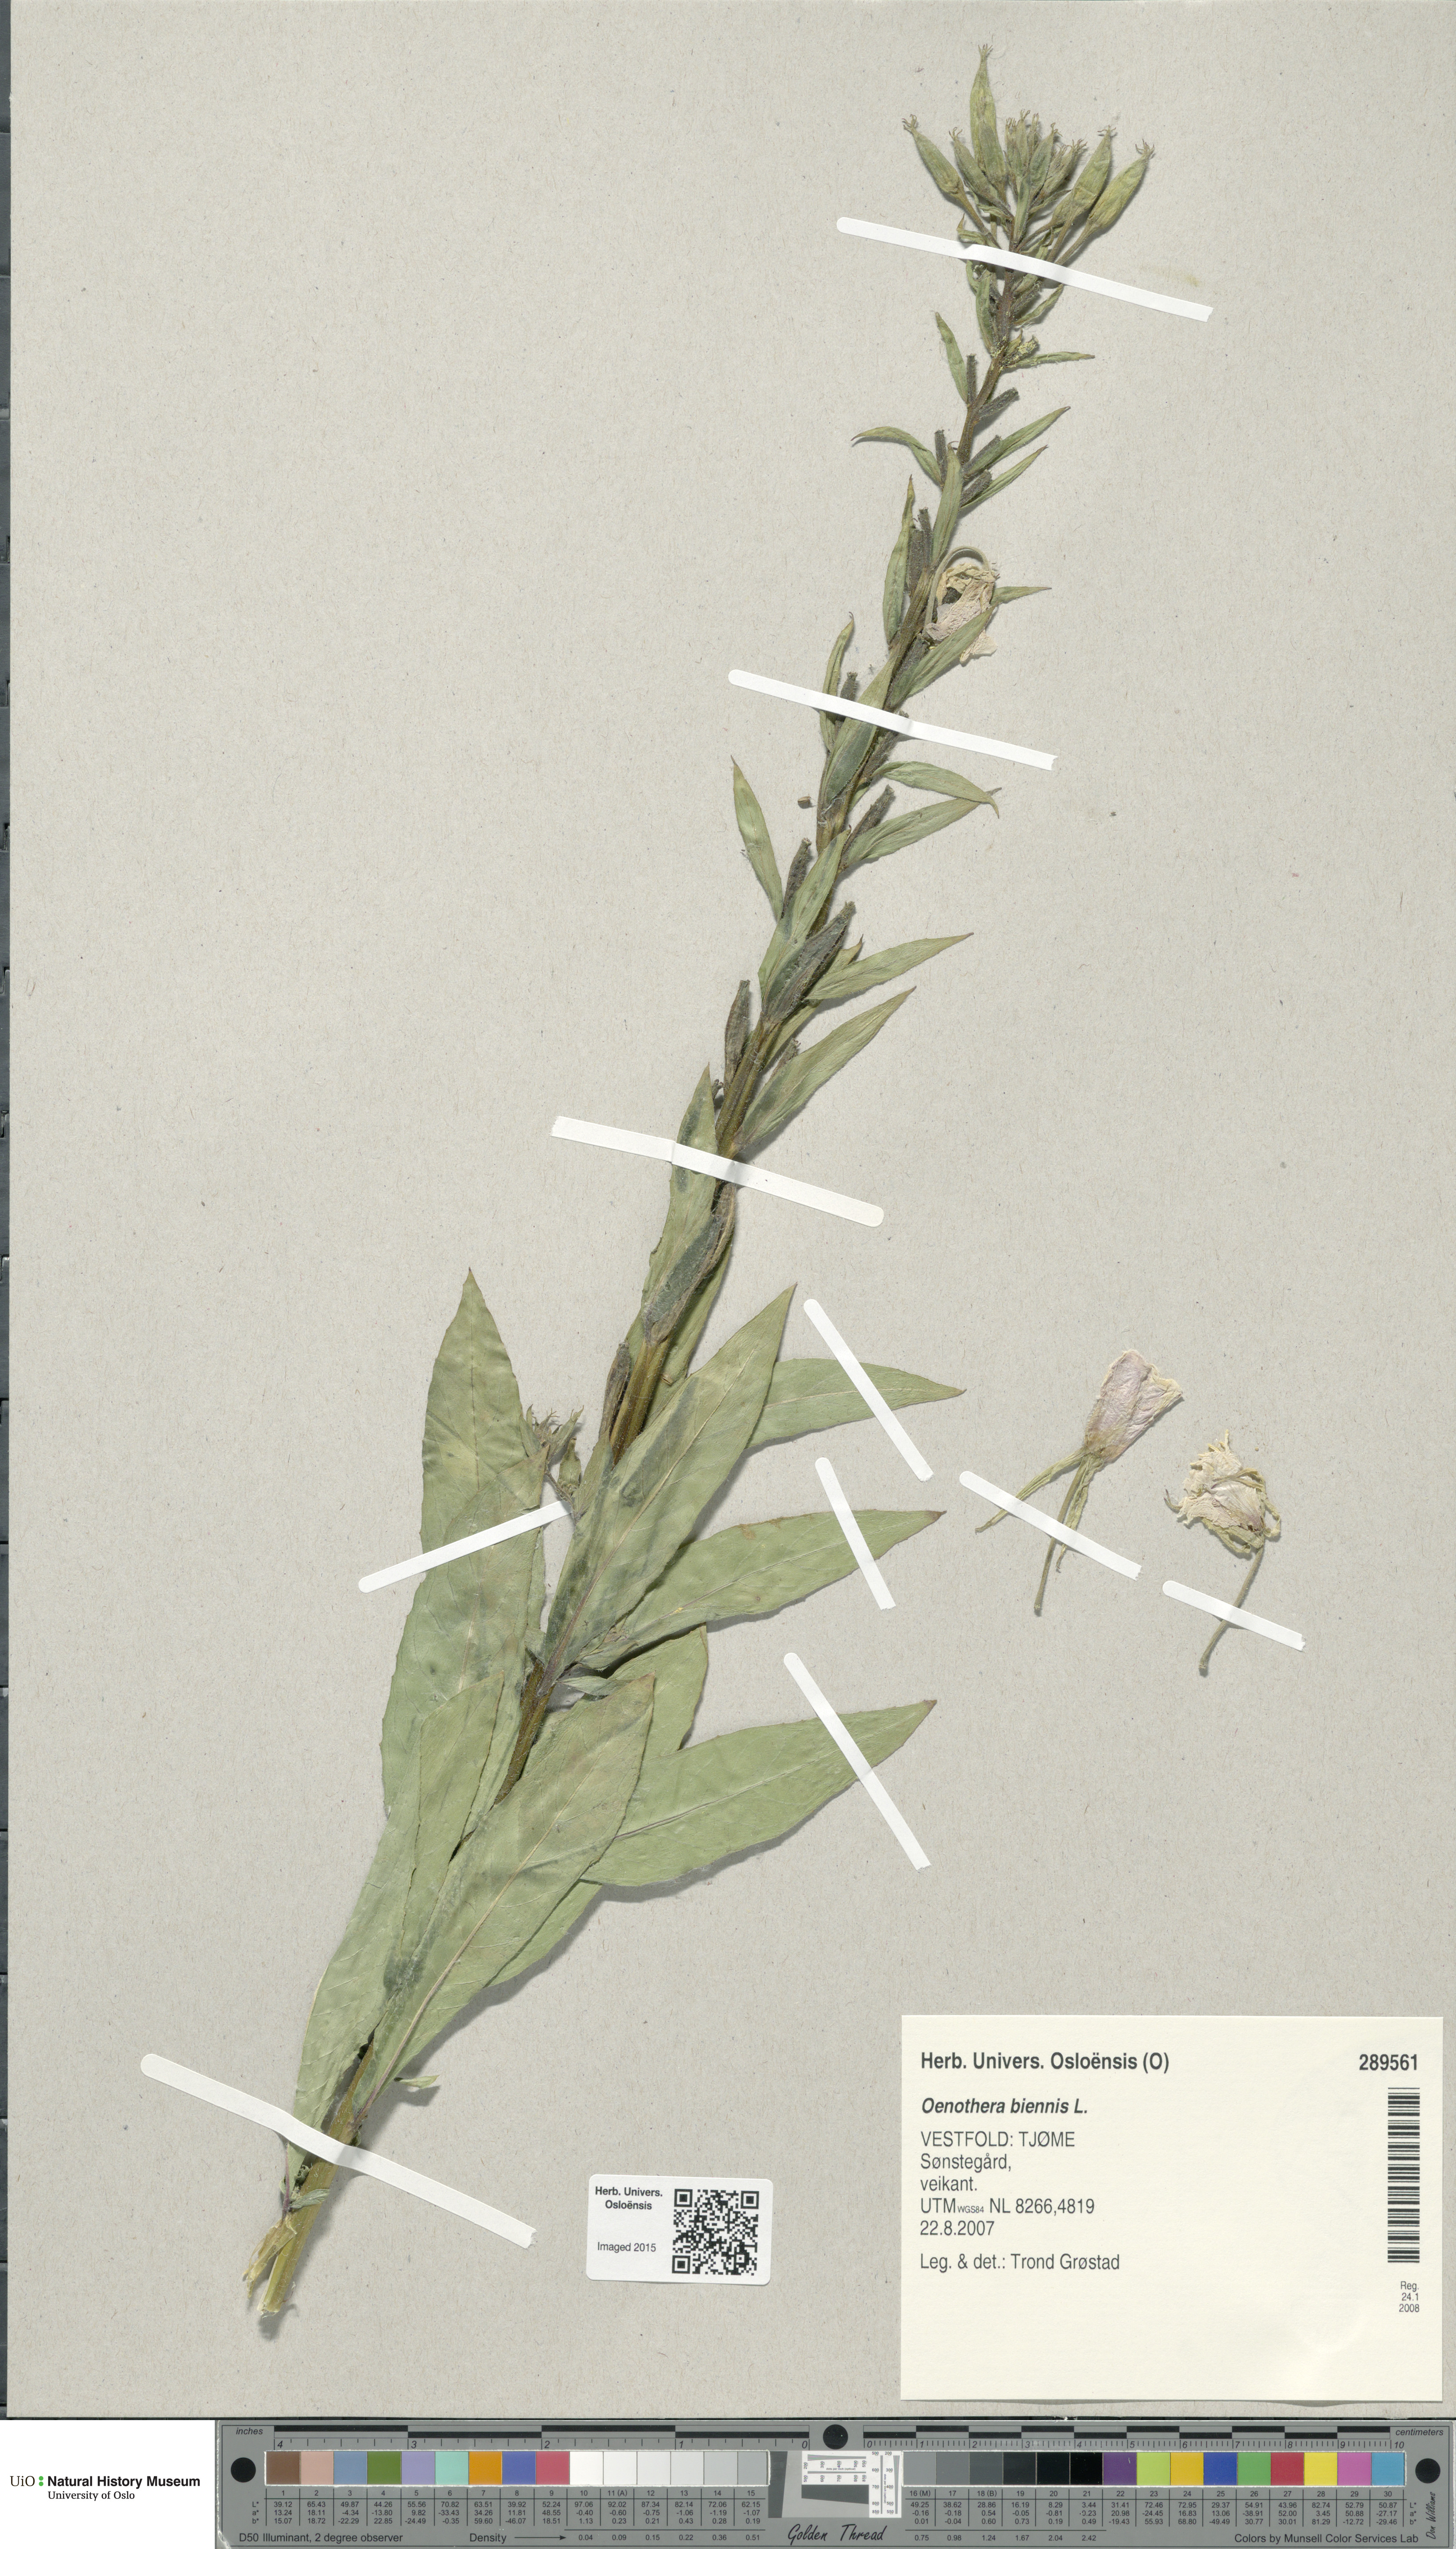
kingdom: Plantae
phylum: Tracheophyta
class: Magnoliopsida
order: Myrtales
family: Onagraceae
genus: Oenothera
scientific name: Oenothera biennis
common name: Common evening-primrose
